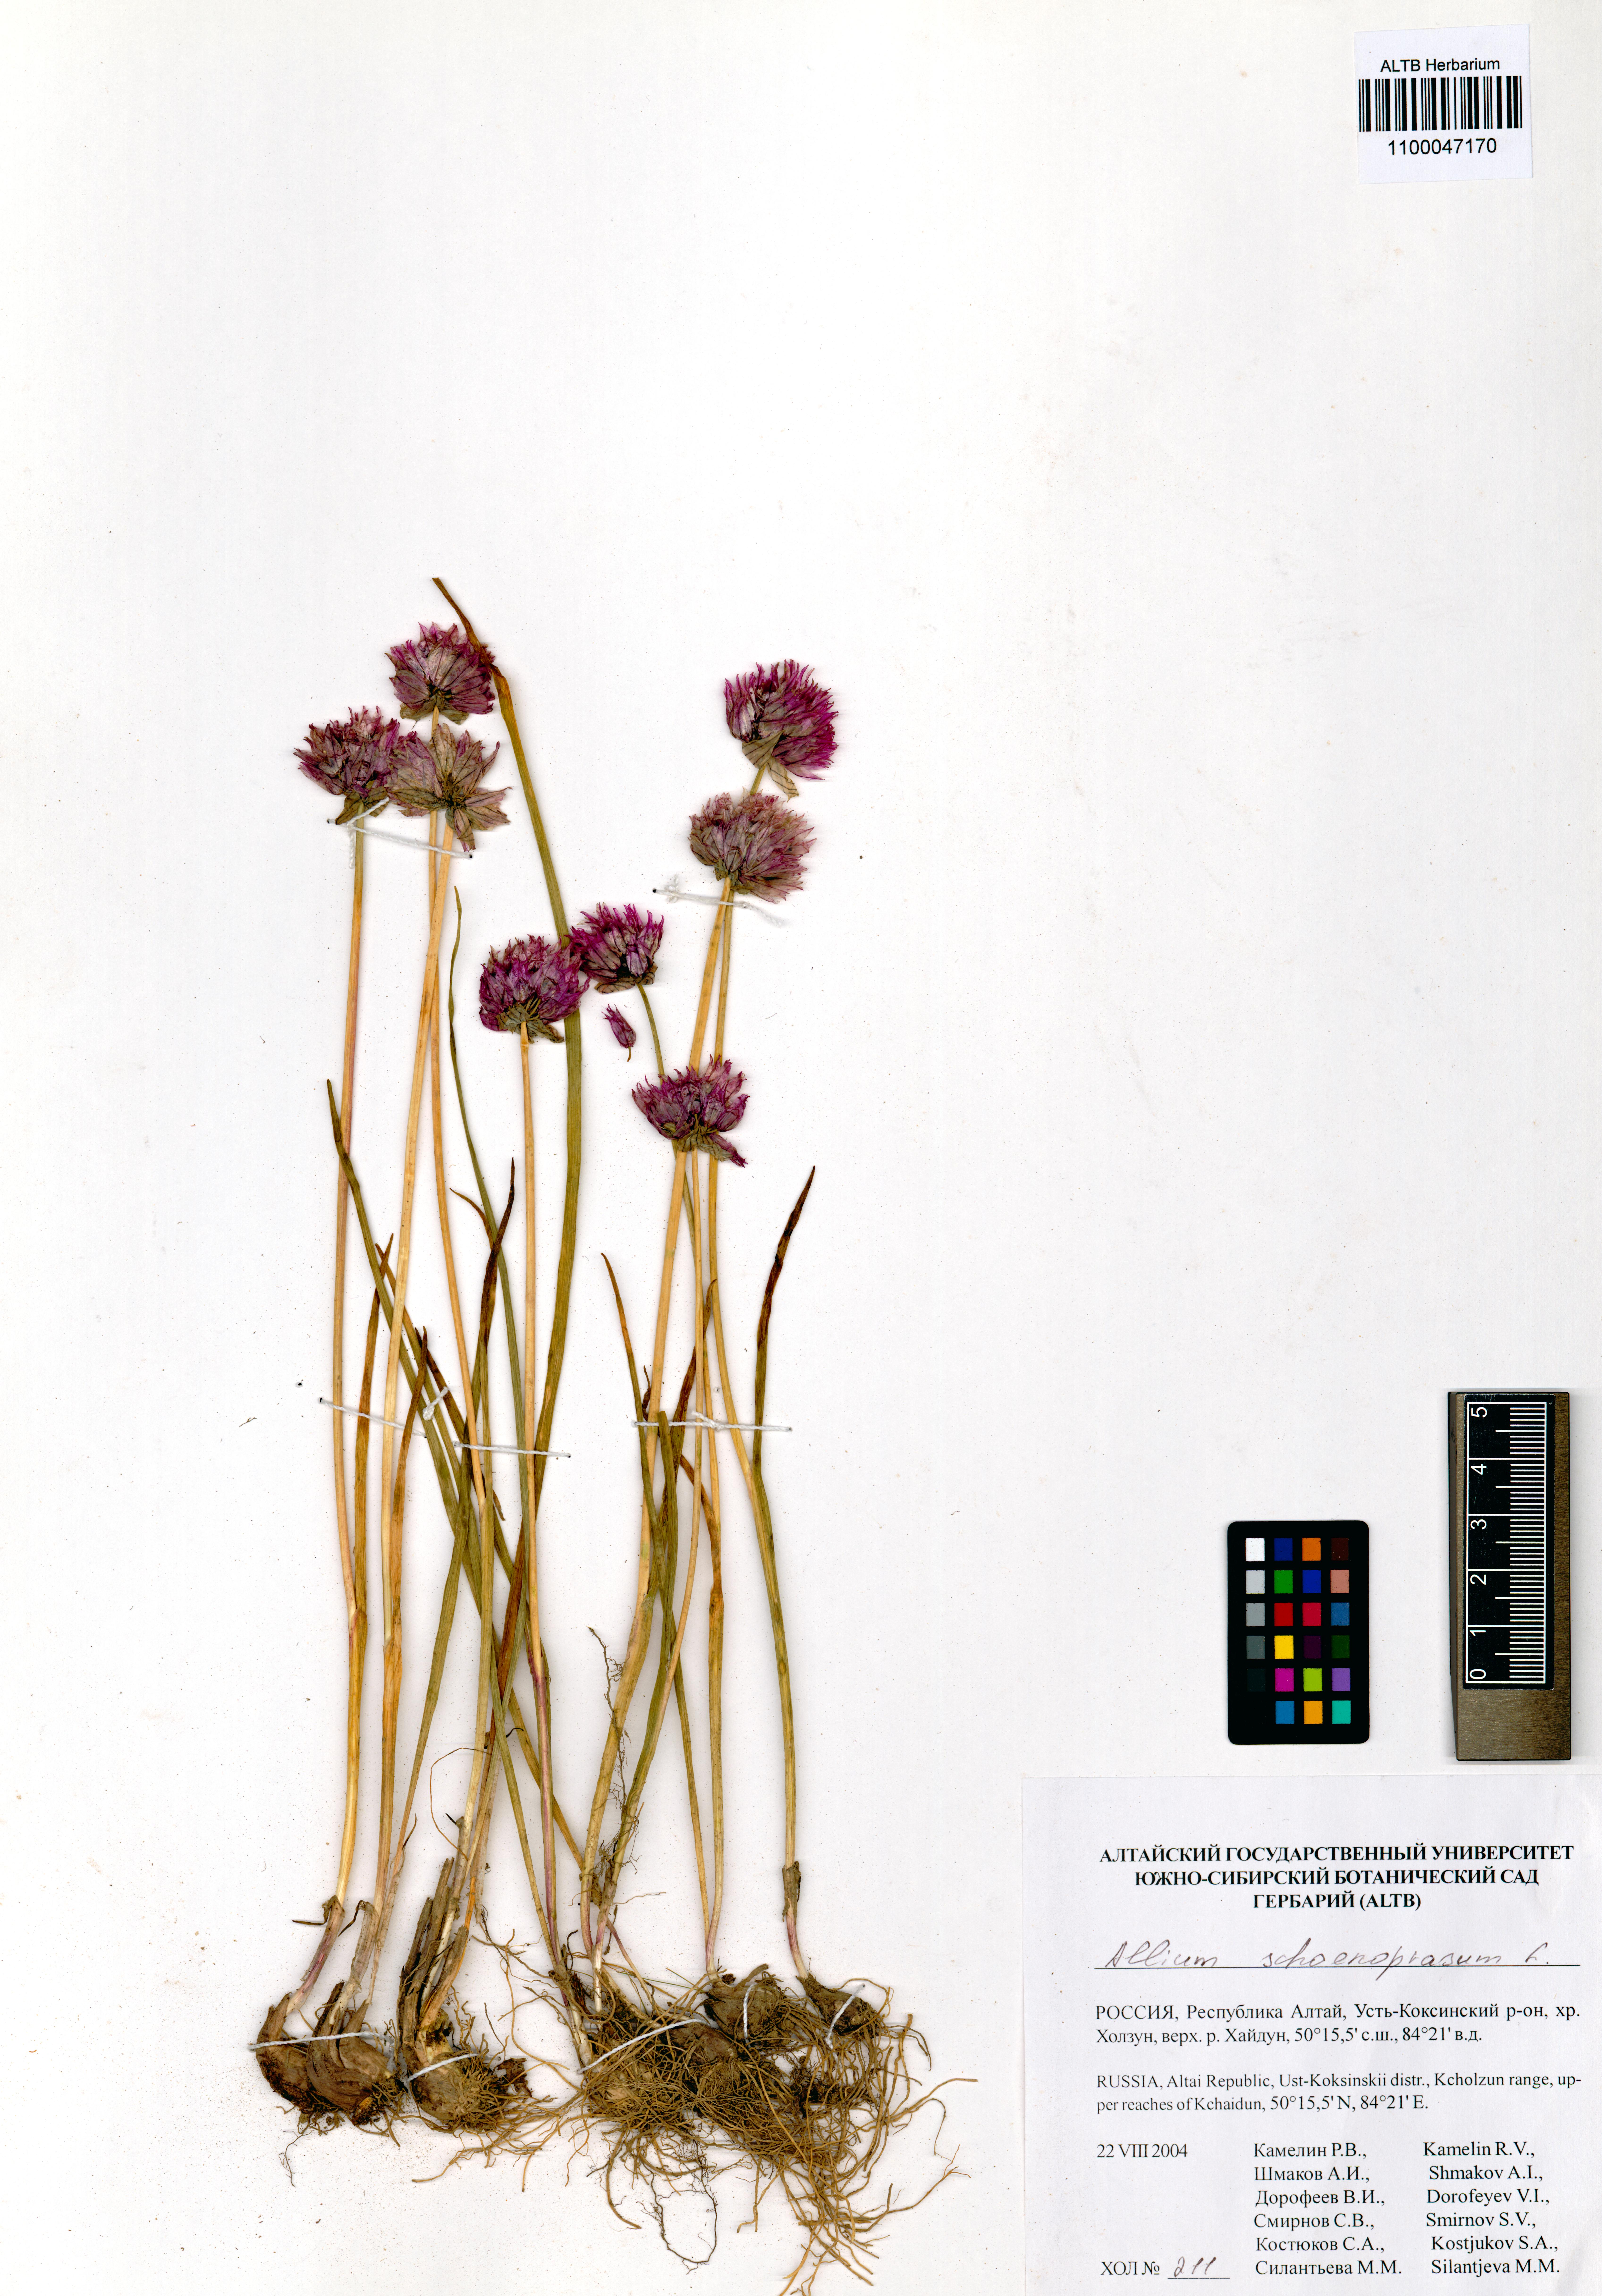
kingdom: Plantae
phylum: Tracheophyta
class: Liliopsida
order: Asparagales
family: Amaryllidaceae
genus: Allium
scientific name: Allium schoenoprasum
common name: Chives
